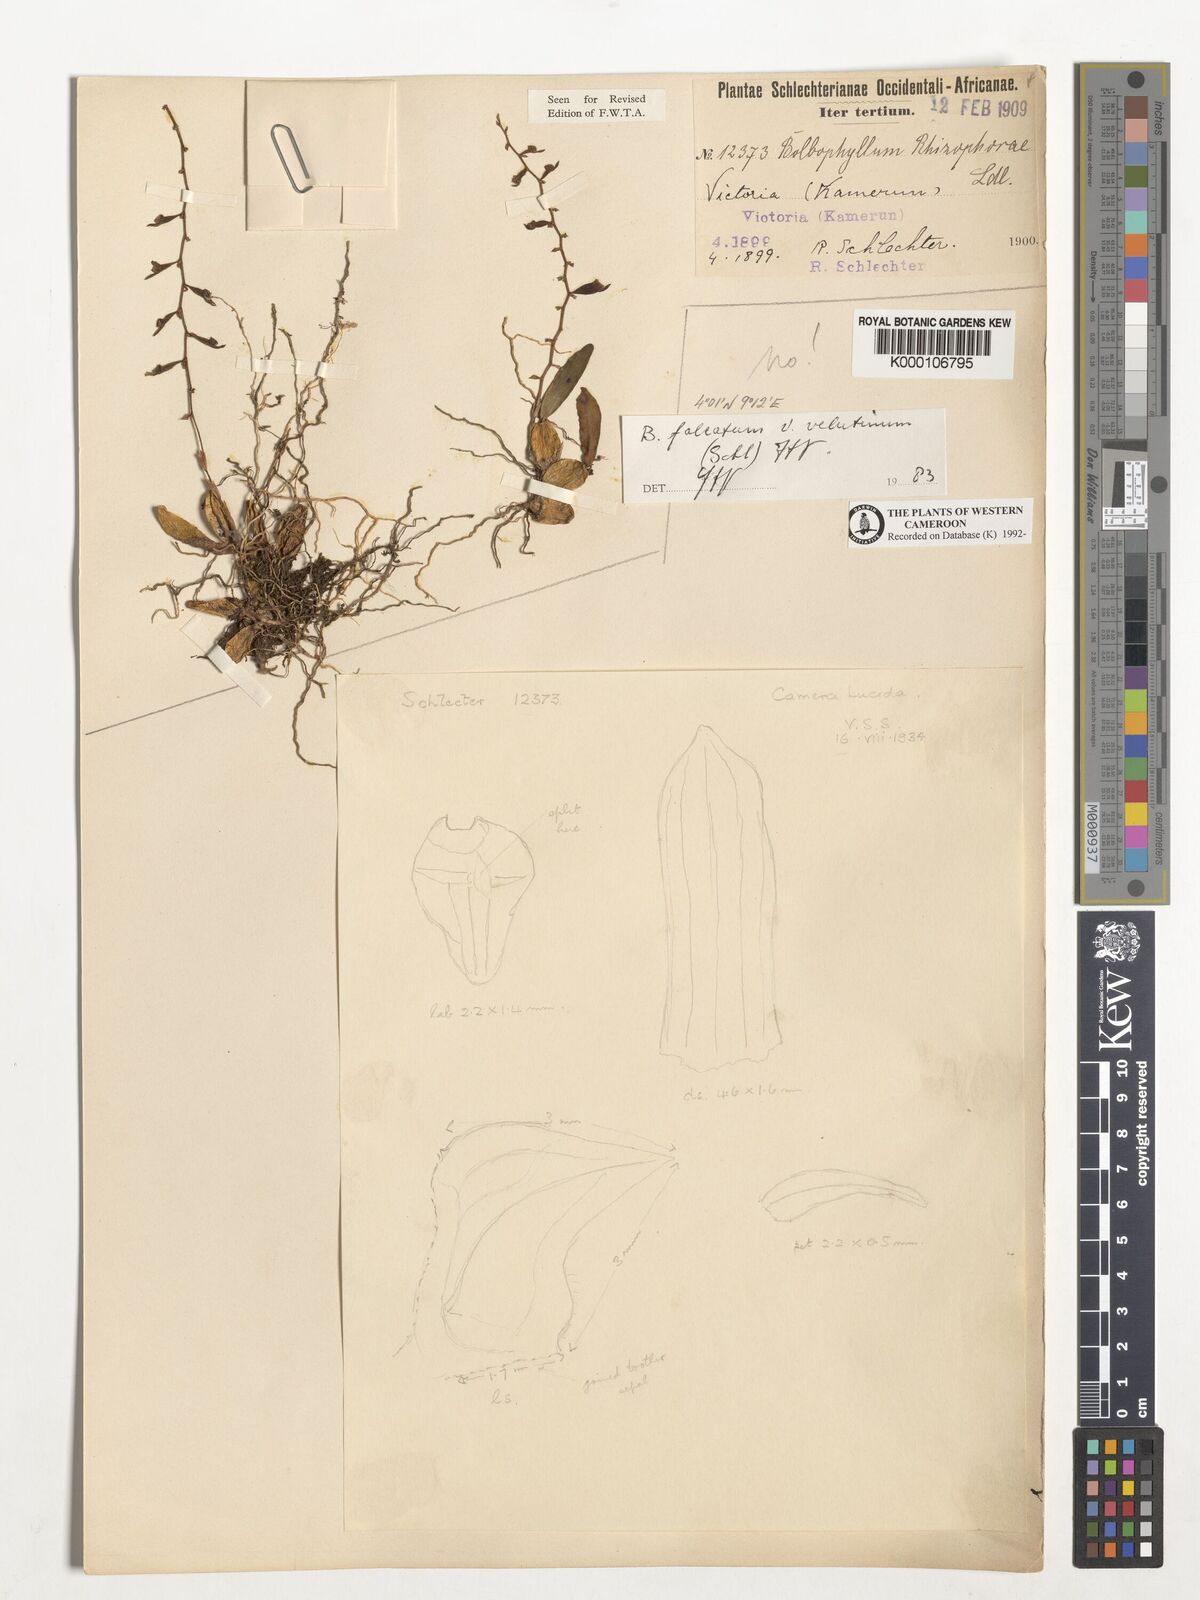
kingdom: Plantae
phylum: Tracheophyta
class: Liliopsida
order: Asparagales
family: Orchidaceae
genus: Bulbophyllum
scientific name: Bulbophyllum falcatum
